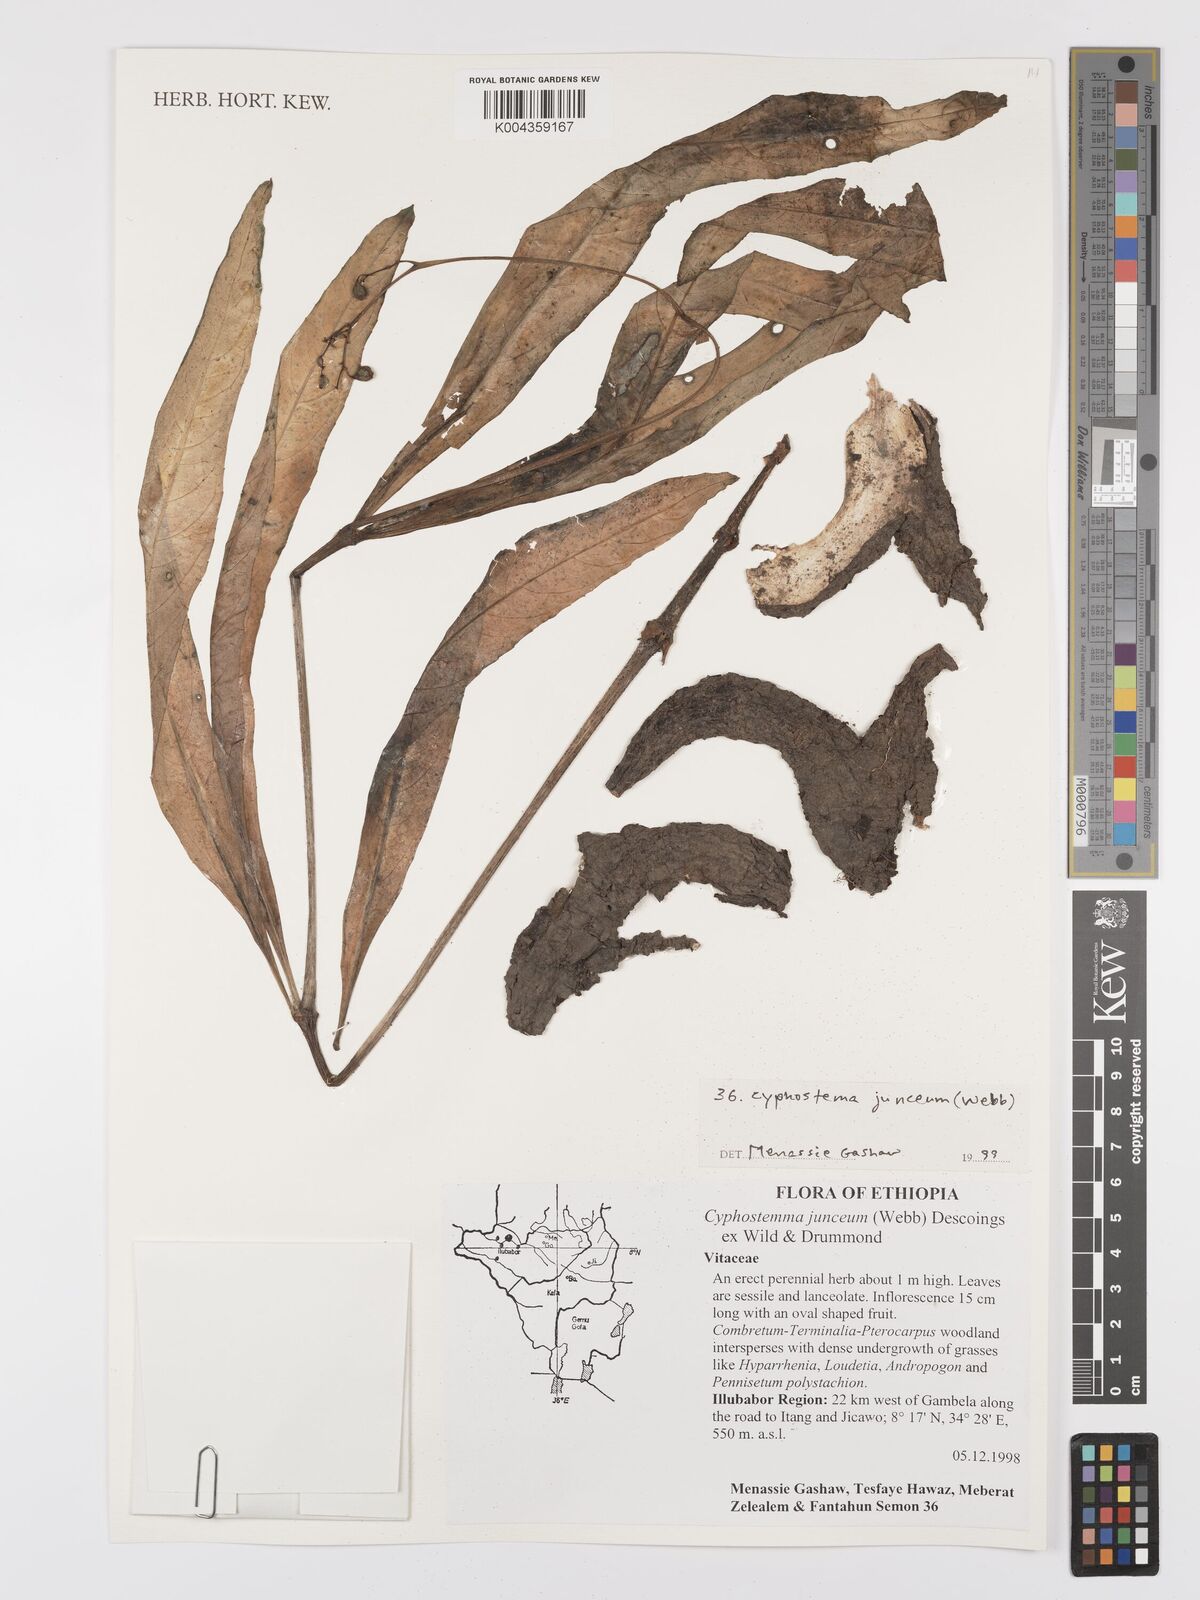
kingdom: Plantae
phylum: Tracheophyta
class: Magnoliopsida
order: Vitales
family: Vitaceae
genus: Cyphostemma
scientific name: Cyphostemma junceum
